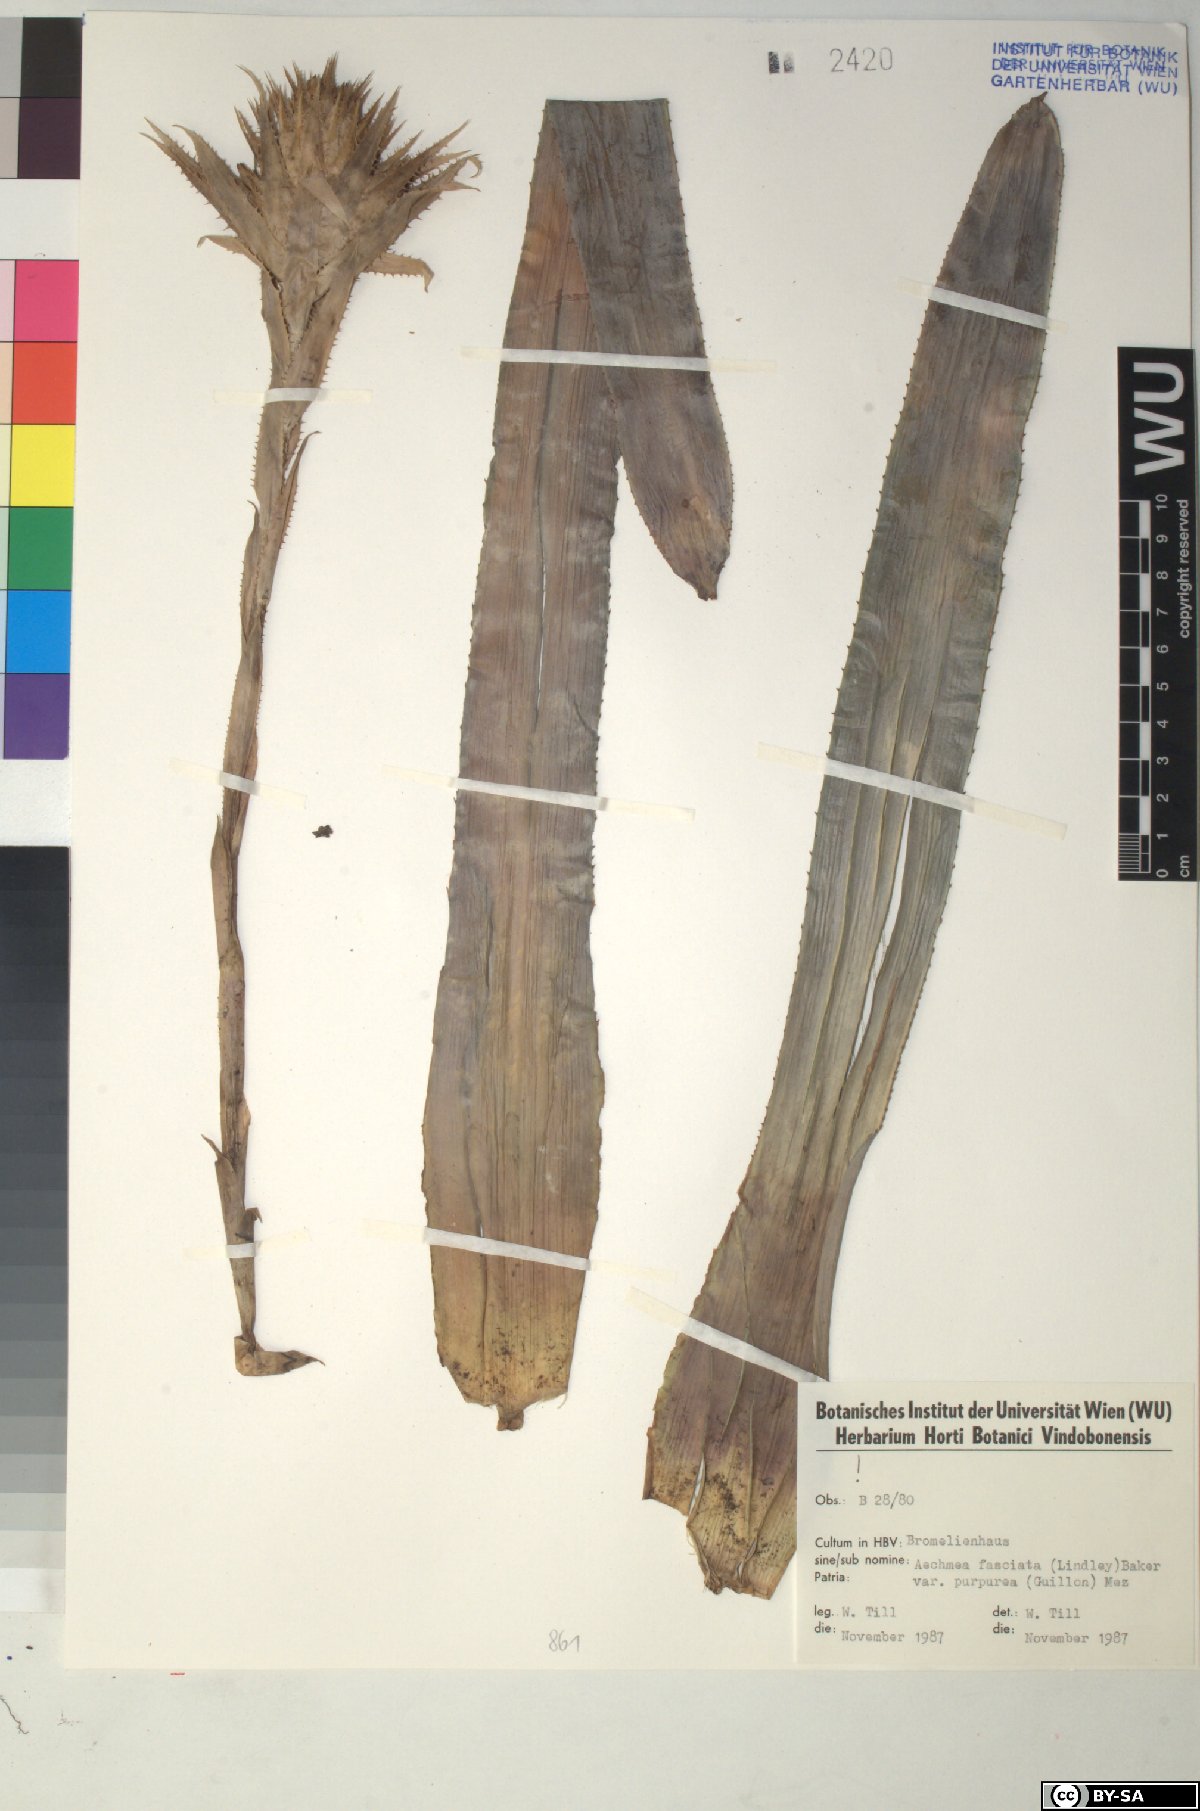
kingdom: Plantae
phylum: Tracheophyta
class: Liliopsida
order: Poales
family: Bromeliaceae
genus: Aechmea
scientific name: Aechmea fasciata
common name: Urnplant
